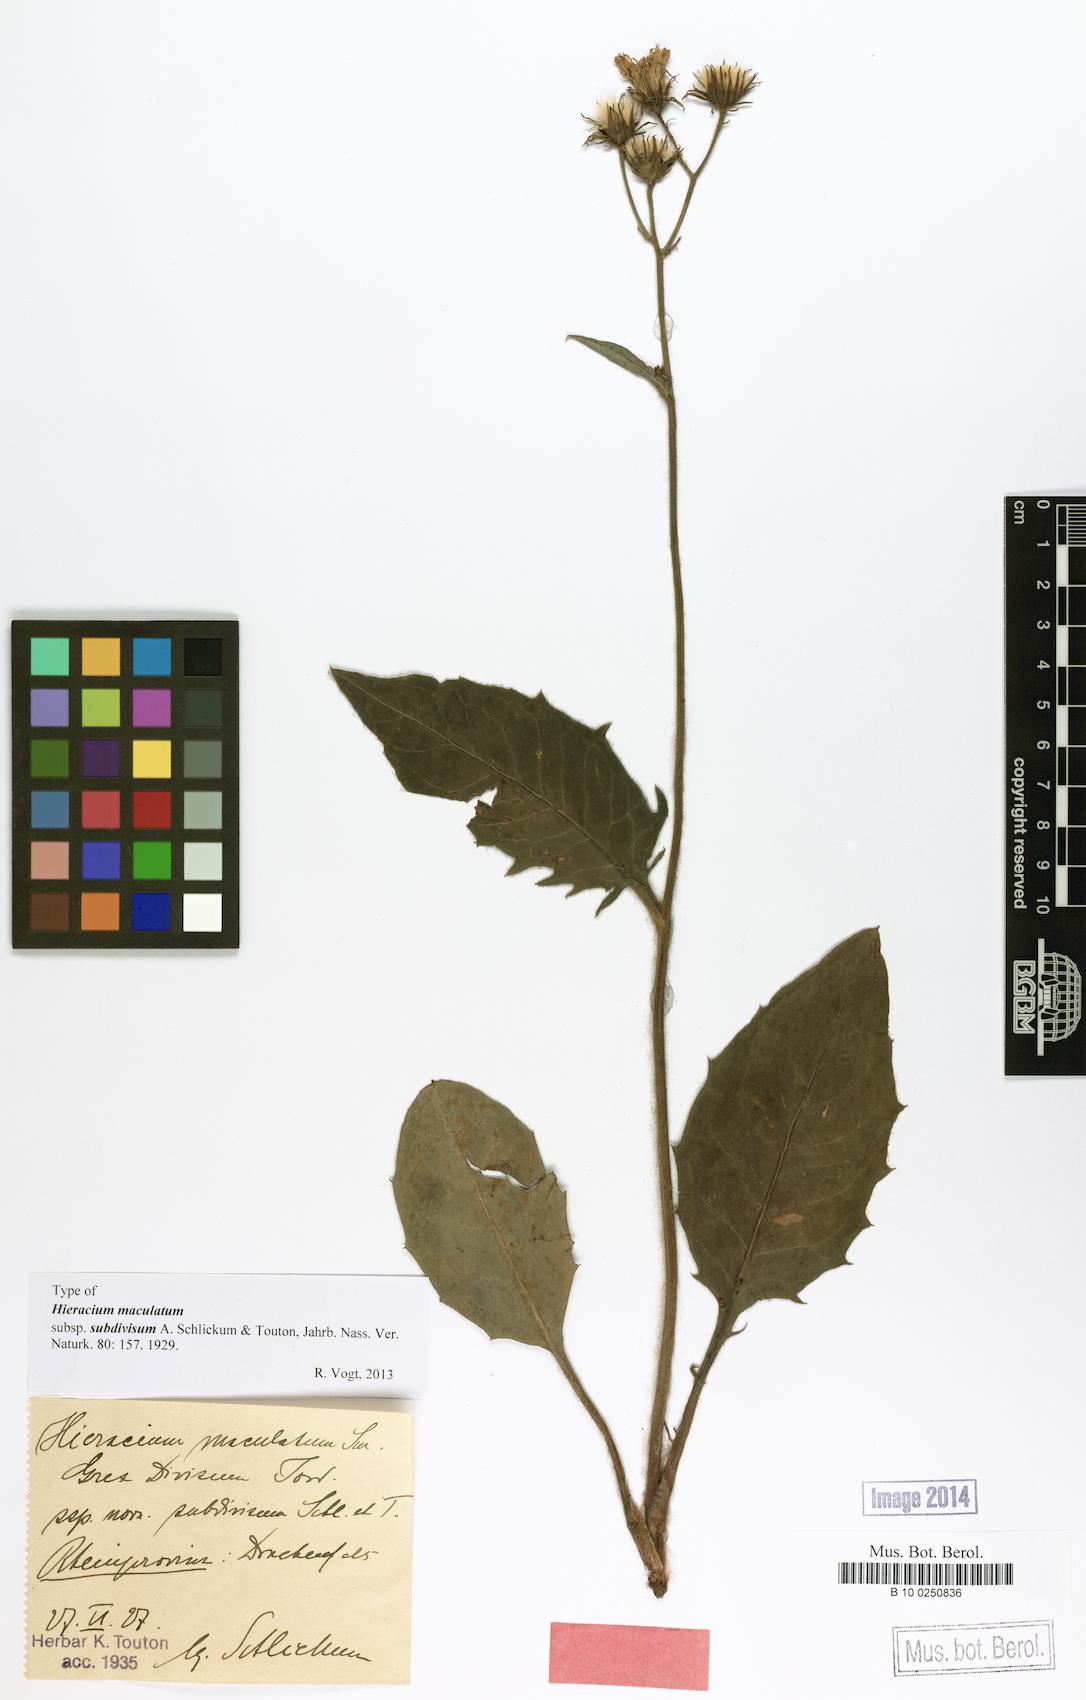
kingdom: Plantae
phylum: Tracheophyta
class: Magnoliopsida
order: Asterales
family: Asteraceae
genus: Hieracium
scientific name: Hieracium maculatum
